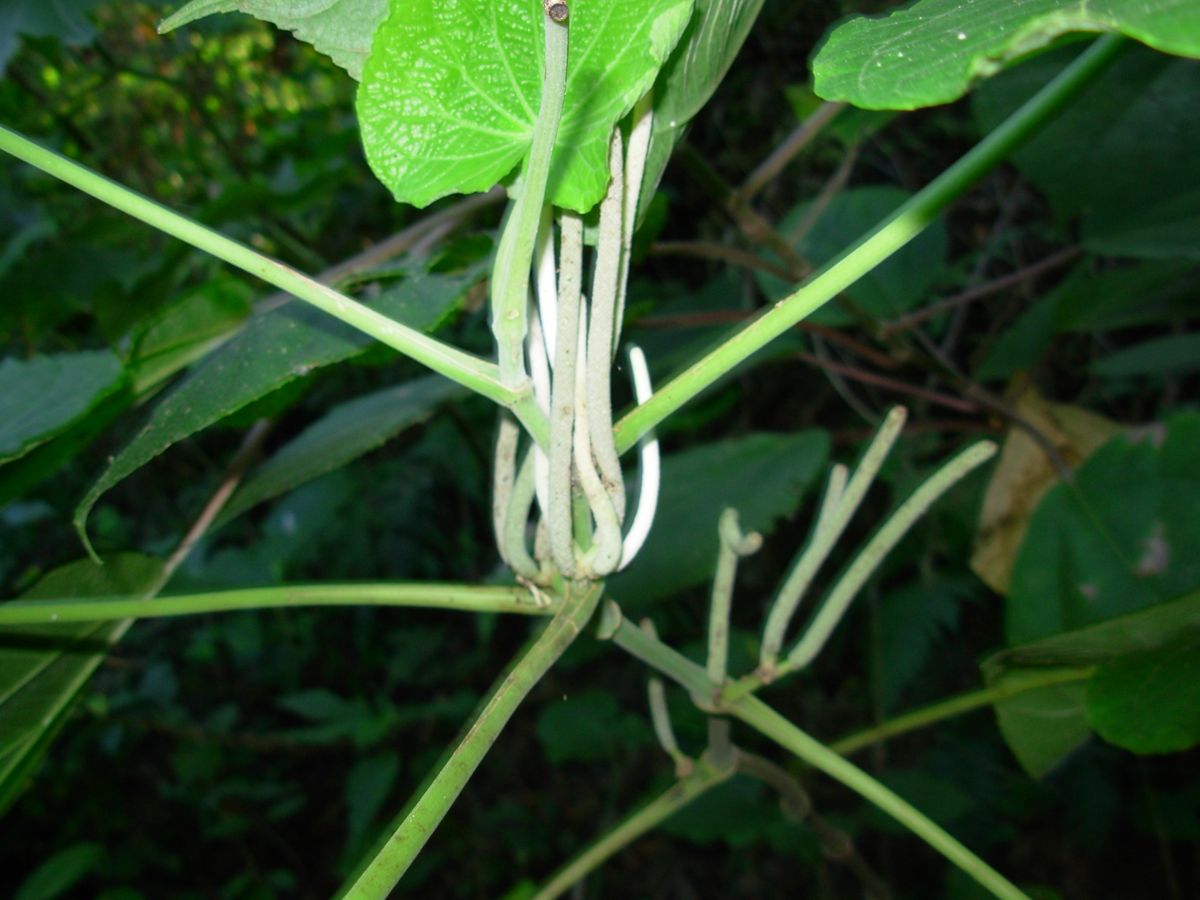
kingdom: Plantae
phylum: Tracheophyta
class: Magnoliopsida
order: Piperales
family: Piperaceae
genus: Piper
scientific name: Piper umbellatum
